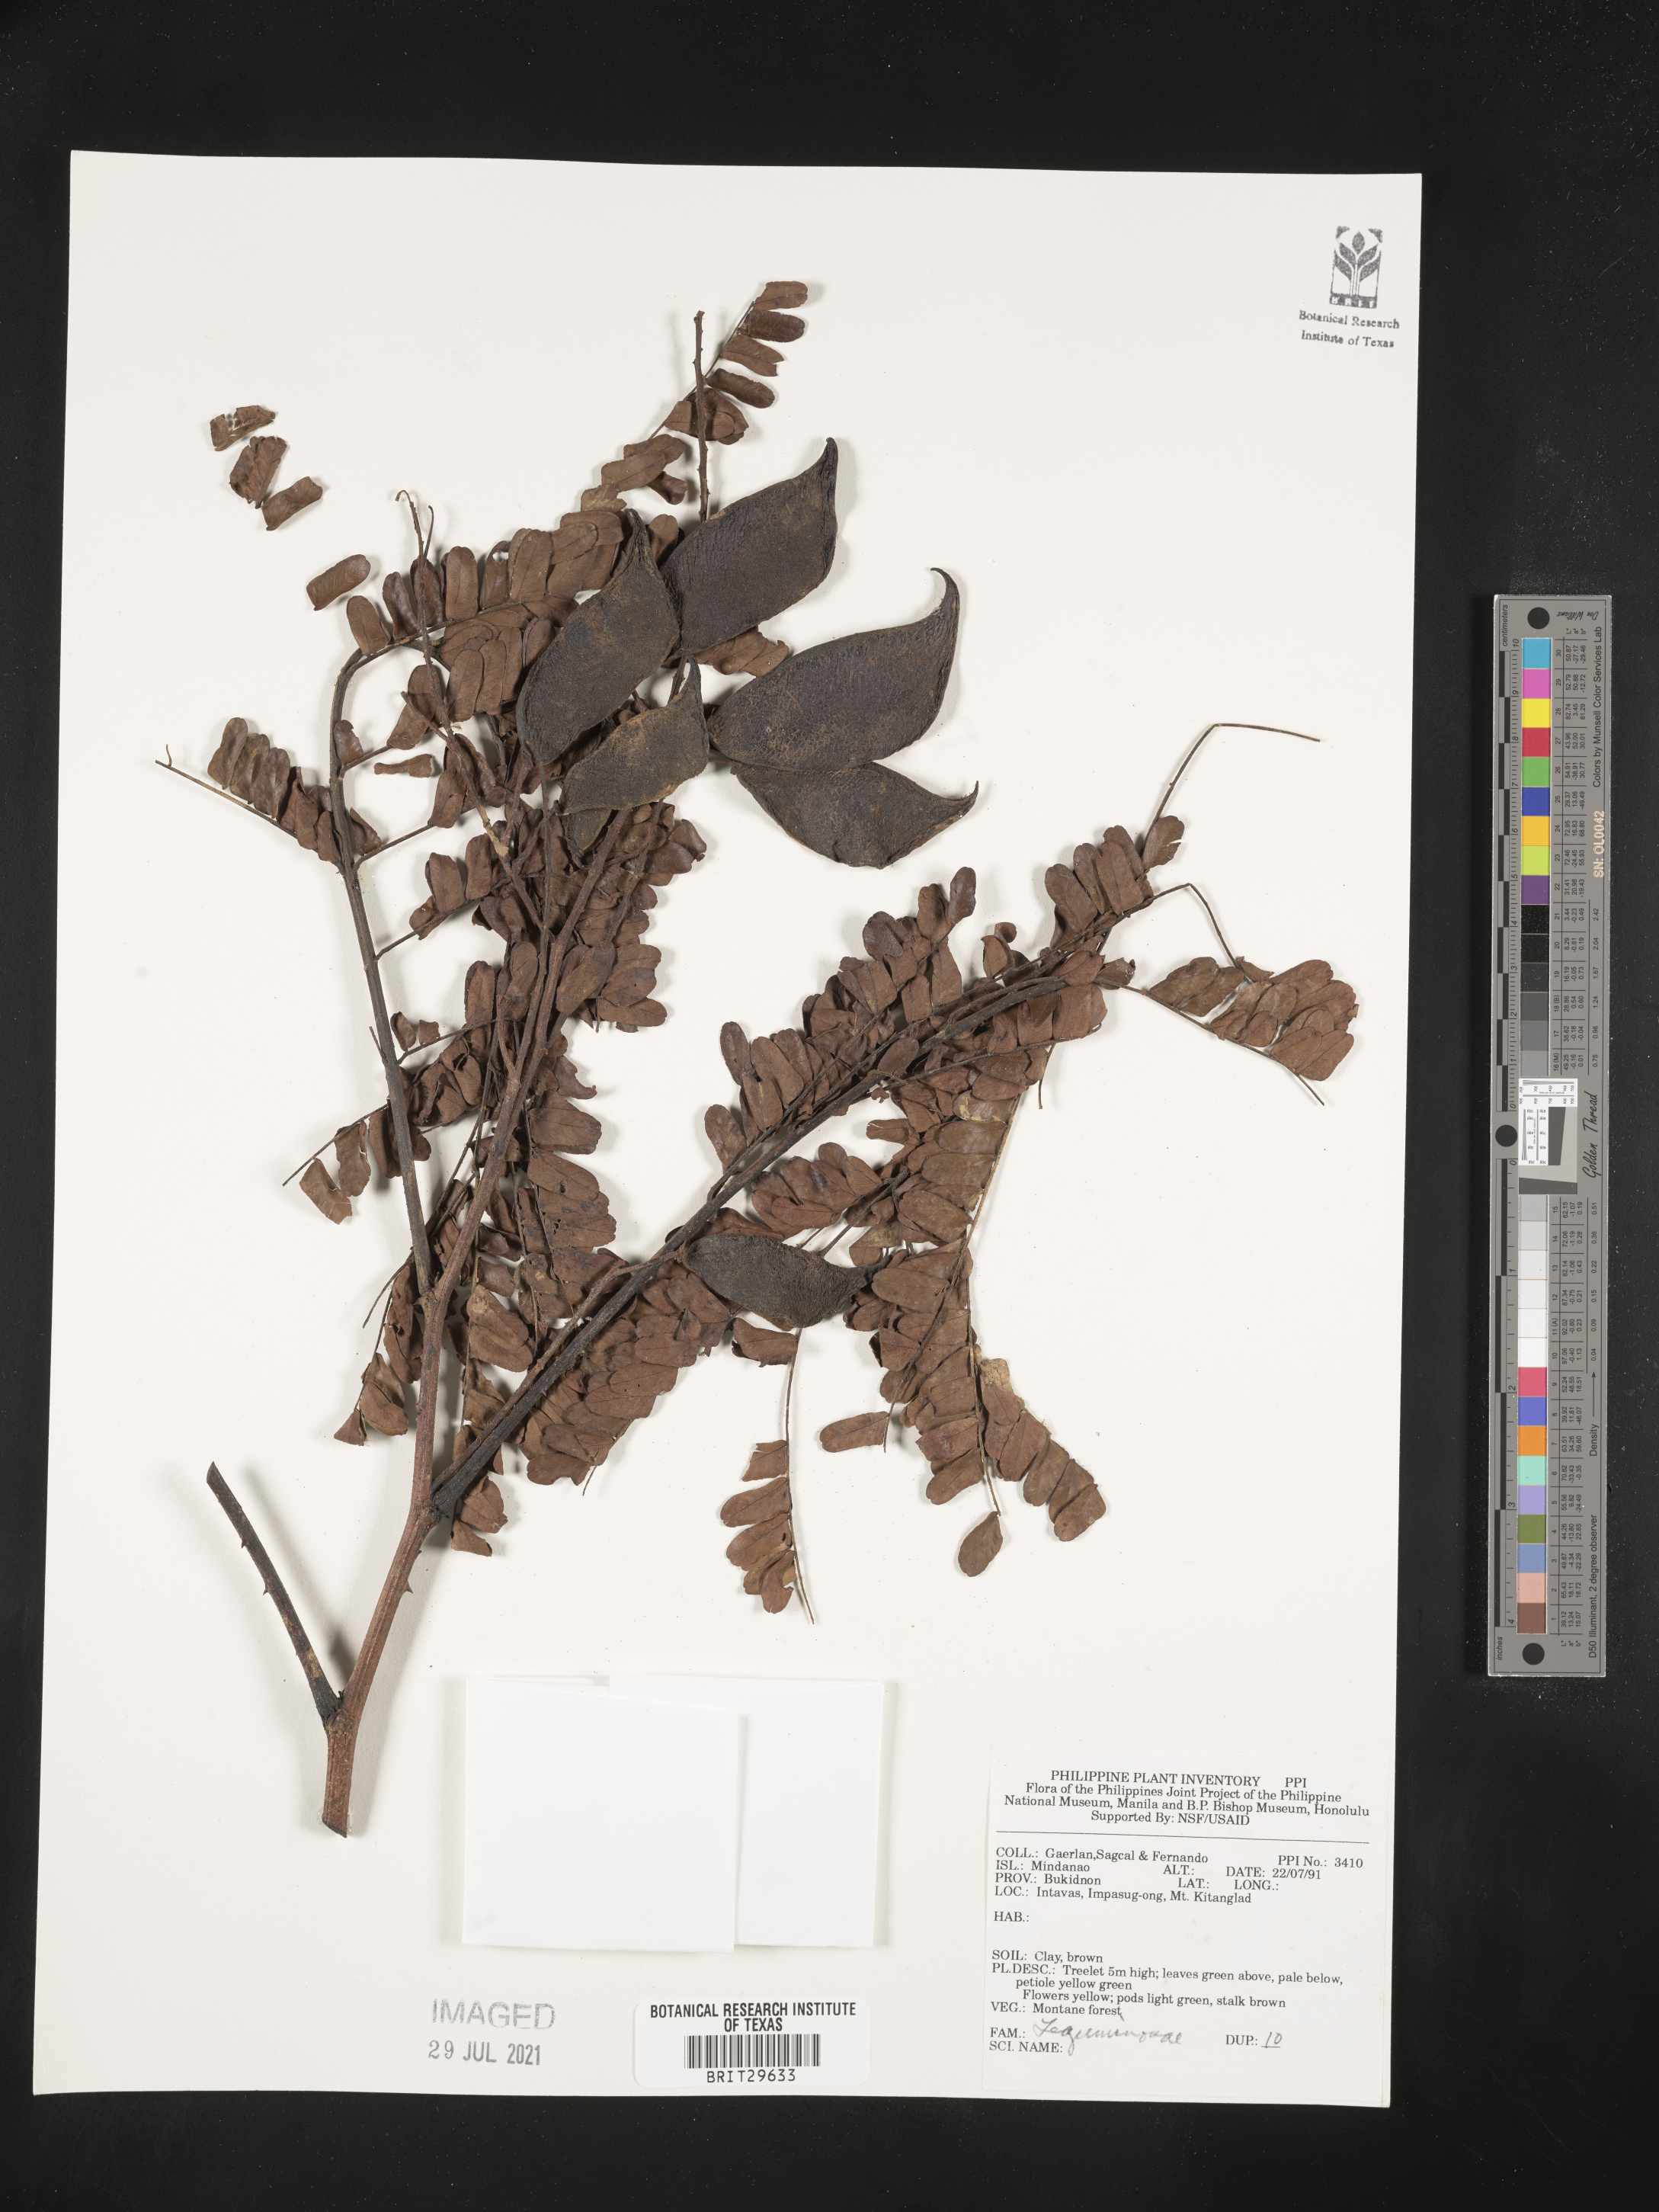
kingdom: Plantae
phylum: Tracheophyta
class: Magnoliopsida
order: Fabales
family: Fabaceae
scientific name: Fabaceae
